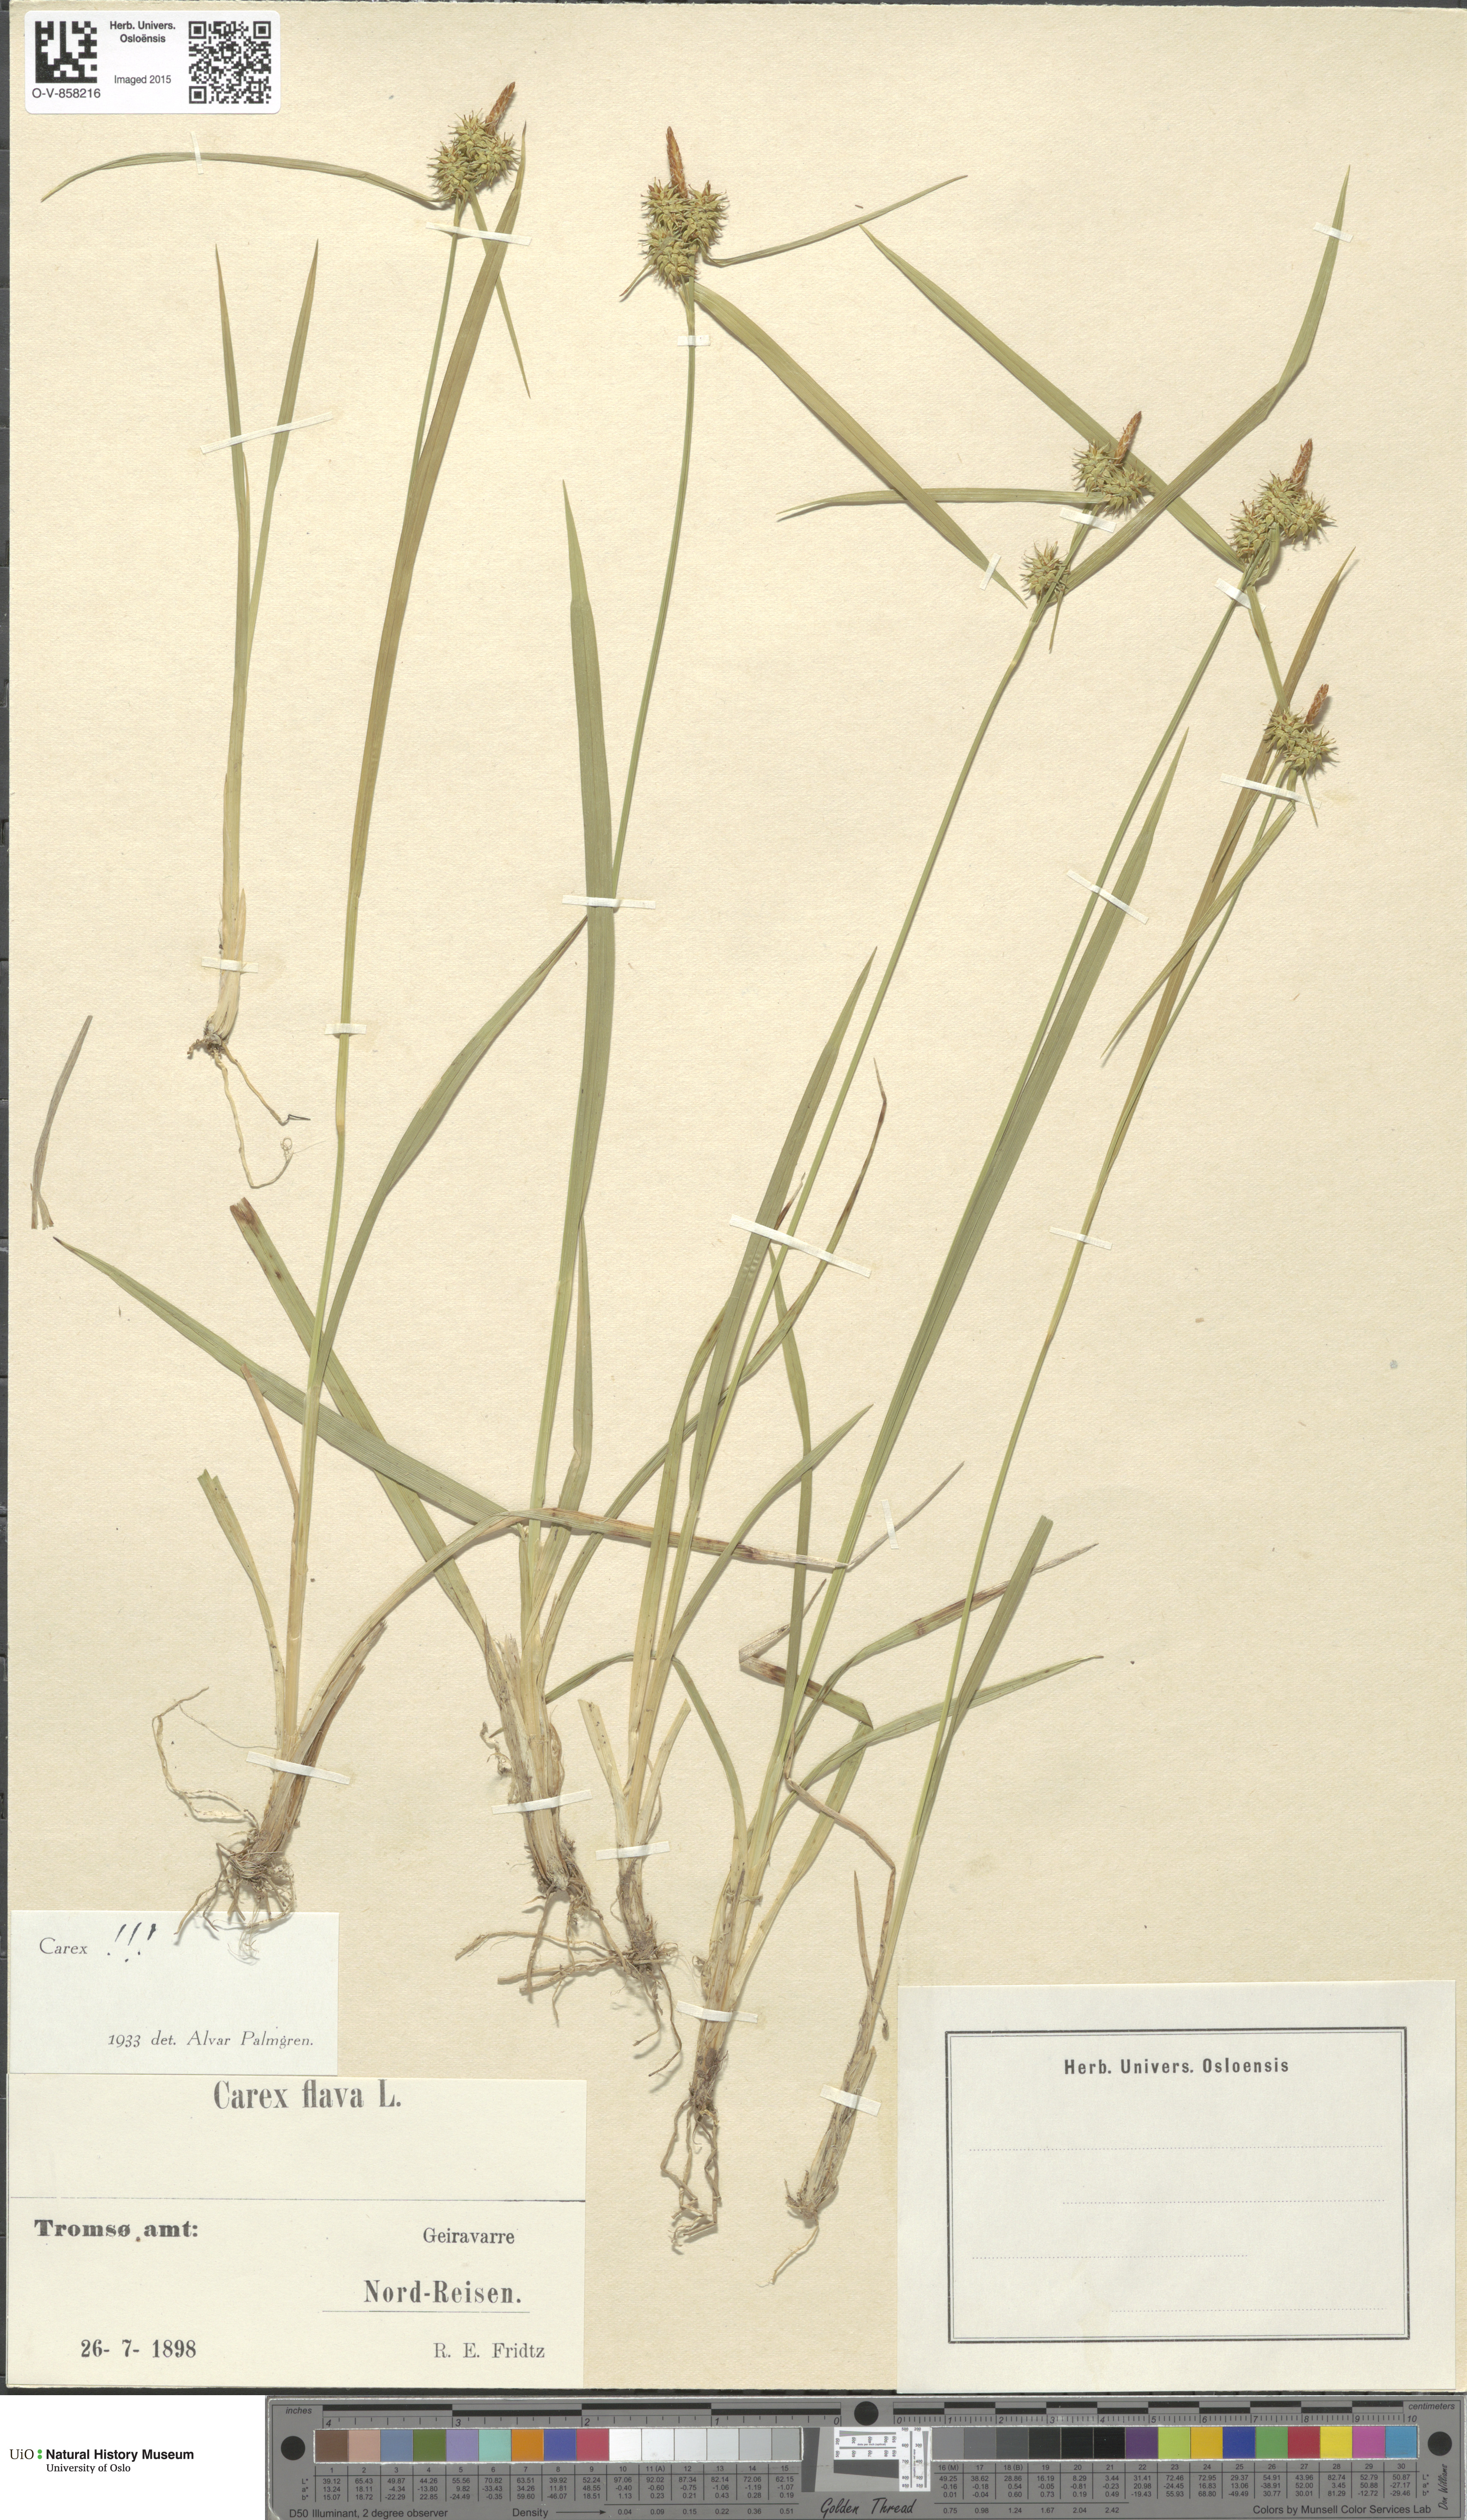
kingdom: Plantae
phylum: Tracheophyta
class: Liliopsida
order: Poales
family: Cyperaceae
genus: Carex
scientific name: Carex flava
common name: Large yellow-sedge
